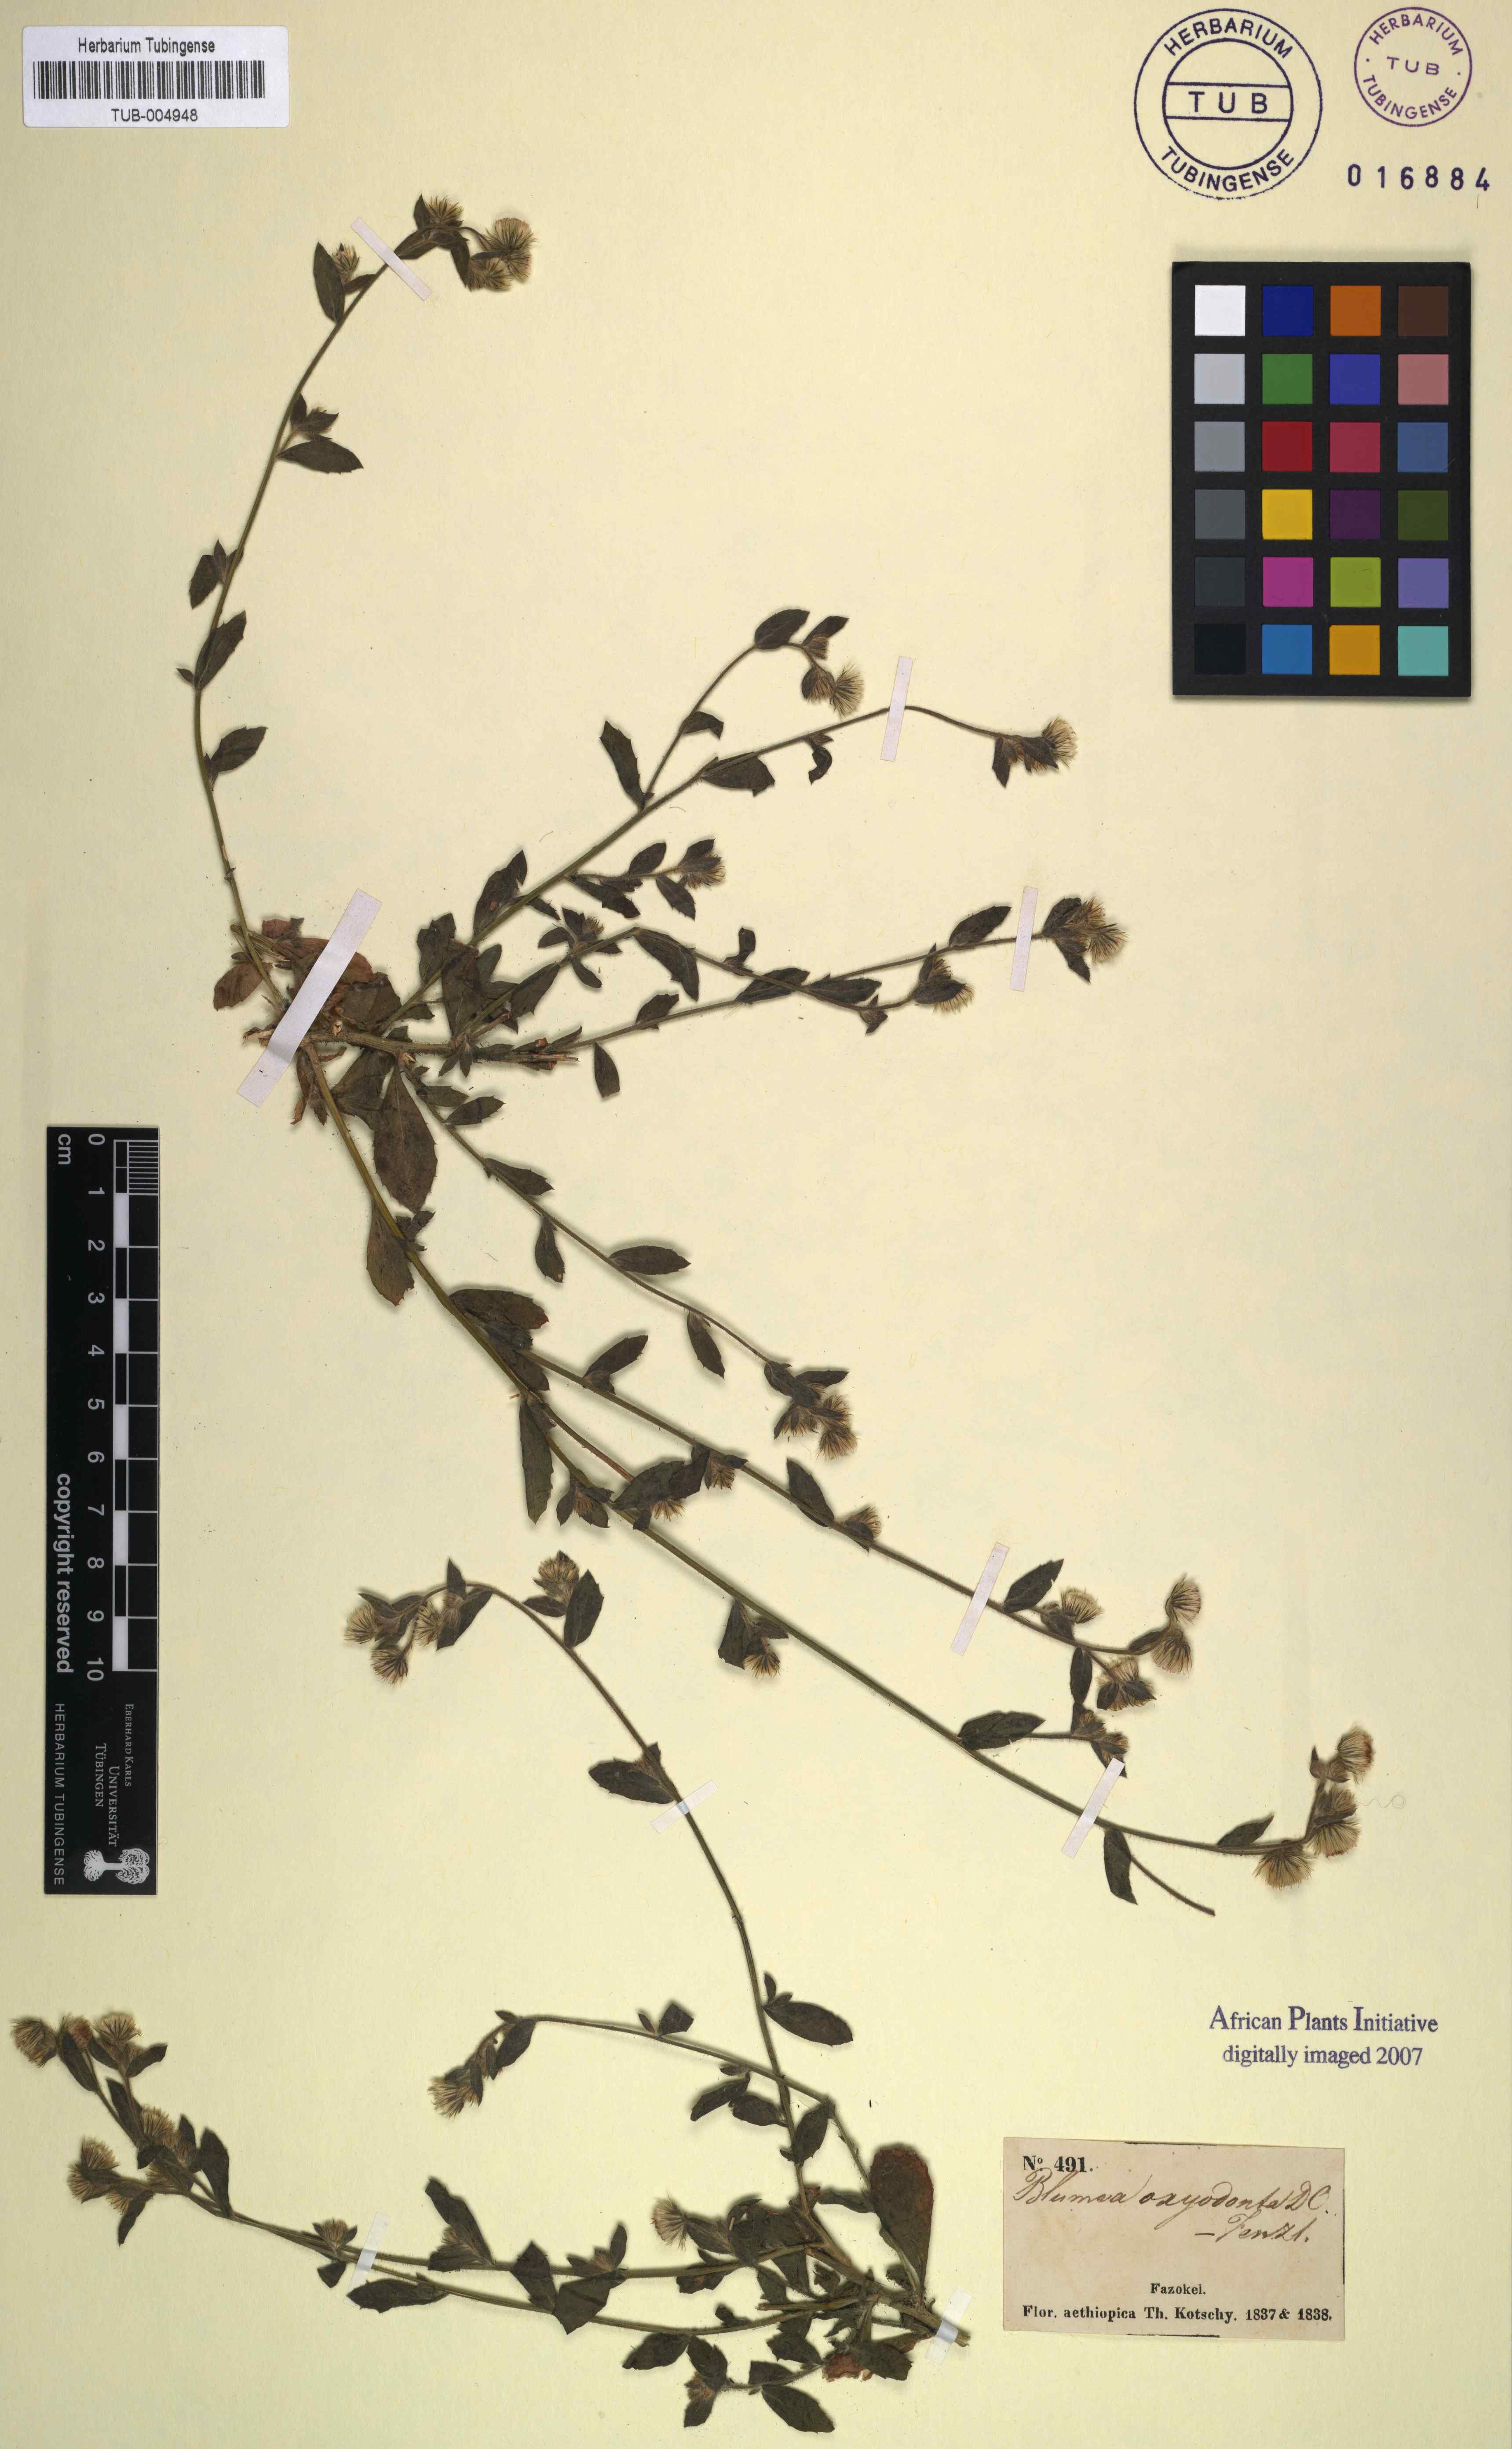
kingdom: Plantae
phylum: Tracheophyta
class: Magnoliopsida
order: Asterales
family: Asteraceae
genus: Blumea
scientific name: Blumea oxyodonta
